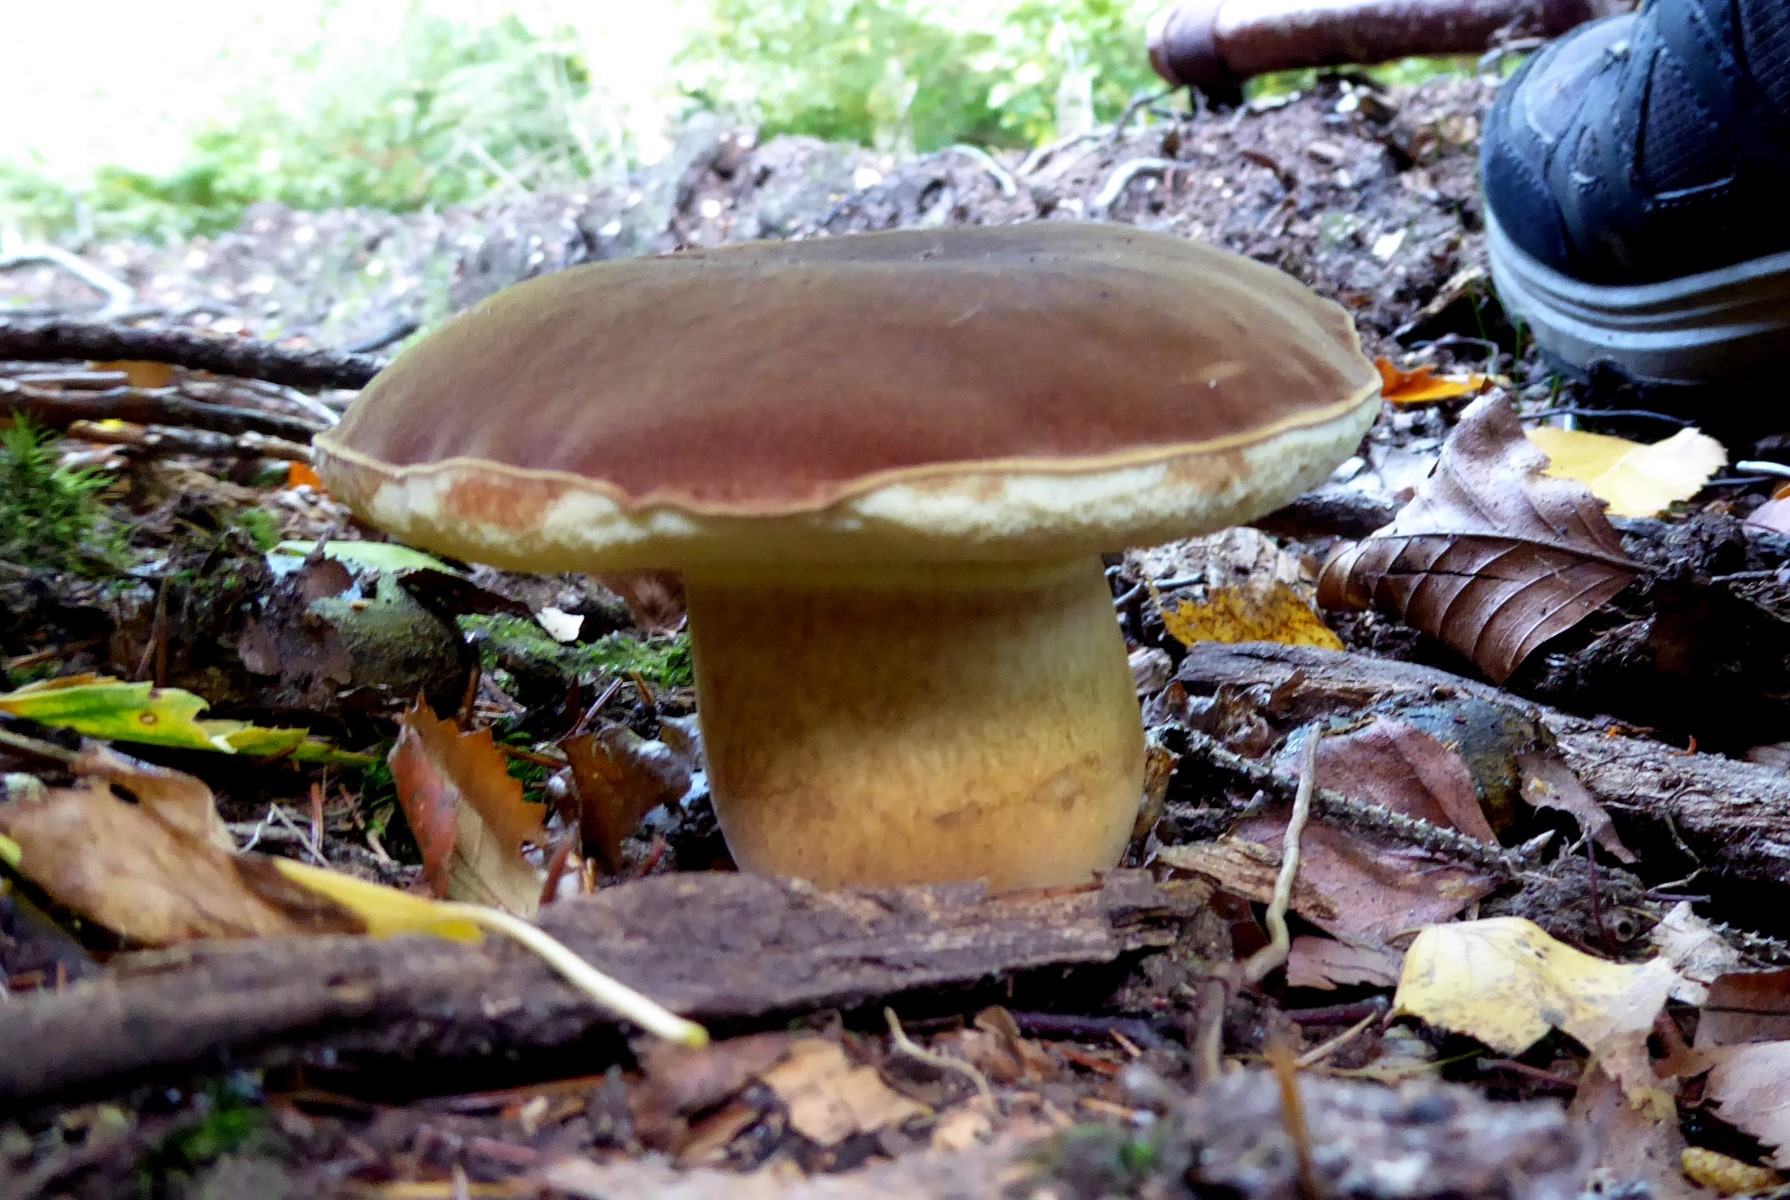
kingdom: Fungi
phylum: Basidiomycota
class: Agaricomycetes
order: Boletales
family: Boletaceae
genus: Imleria
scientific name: Imleria badia
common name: brunstokket rørhat
